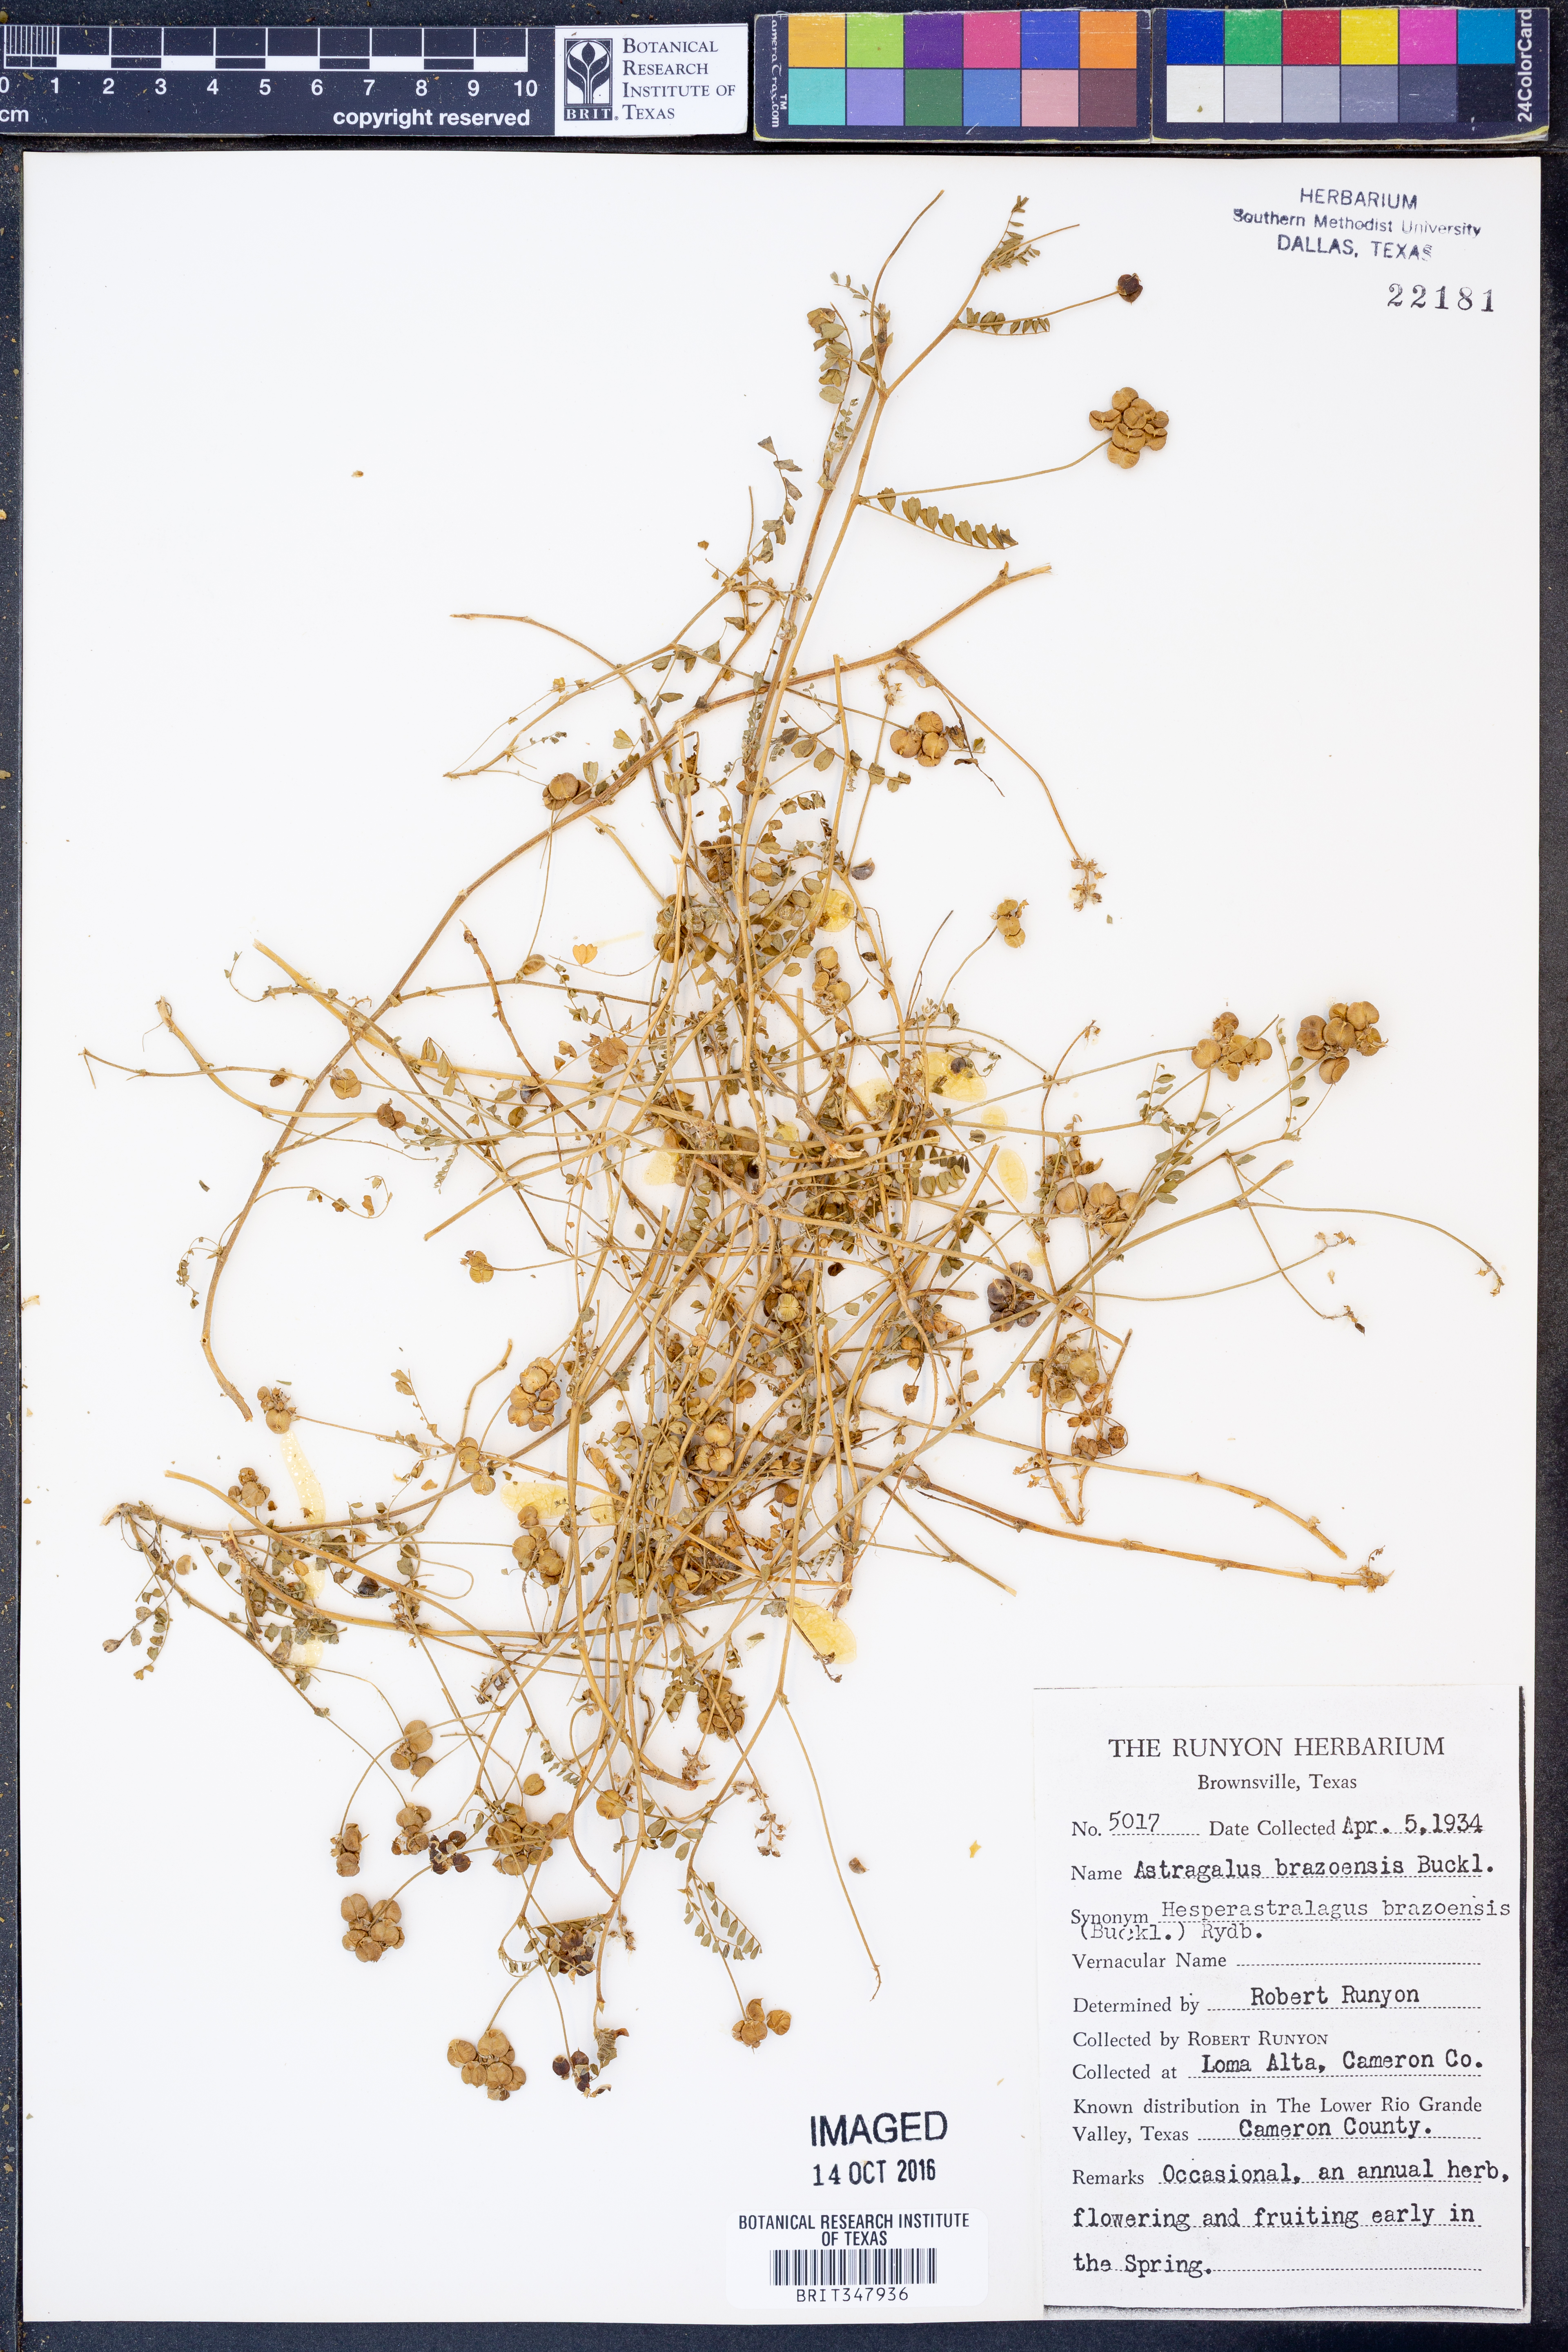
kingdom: Plantae
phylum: Tracheophyta
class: Magnoliopsida
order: Fabales
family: Fabaceae
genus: Astragalus
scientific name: Astragalus brazoensis
